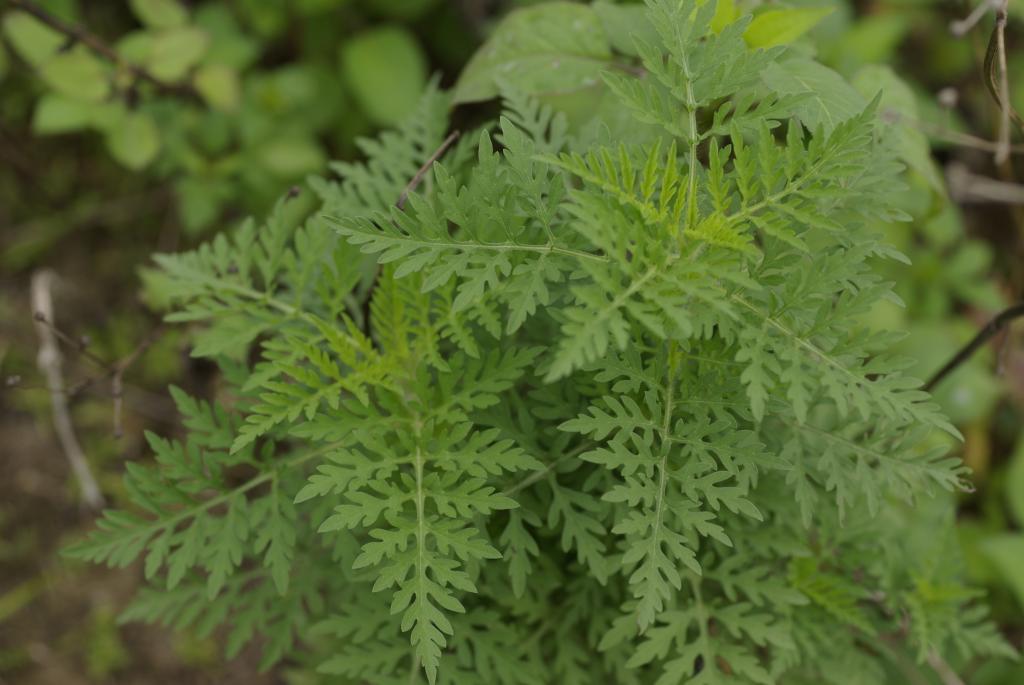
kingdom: Plantae
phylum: Tracheophyta
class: Magnoliopsida
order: Asterales
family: Asteraceae
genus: Ambrosia
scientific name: Ambrosia artemisiifolia
